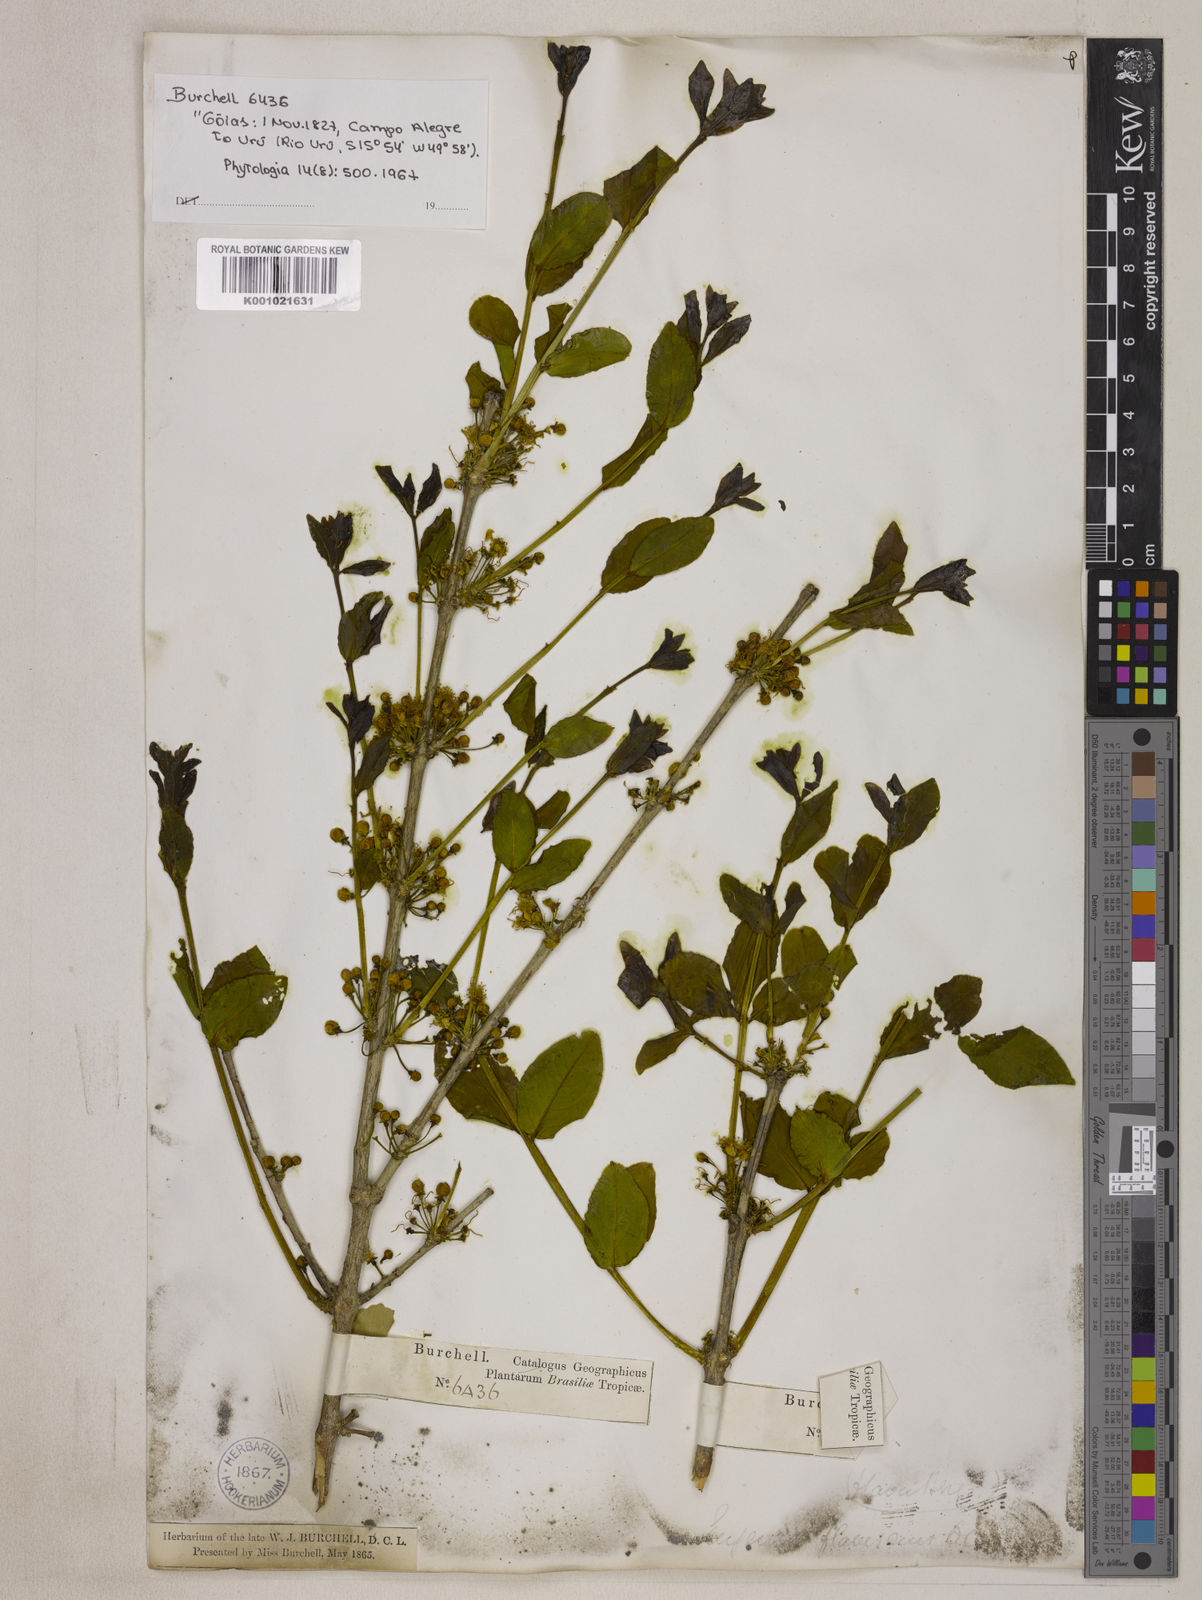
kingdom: Plantae
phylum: Tracheophyta
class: Magnoliopsida
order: Myrtales
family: Myrtaceae
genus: Eugenia
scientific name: Eugenia flavescens
